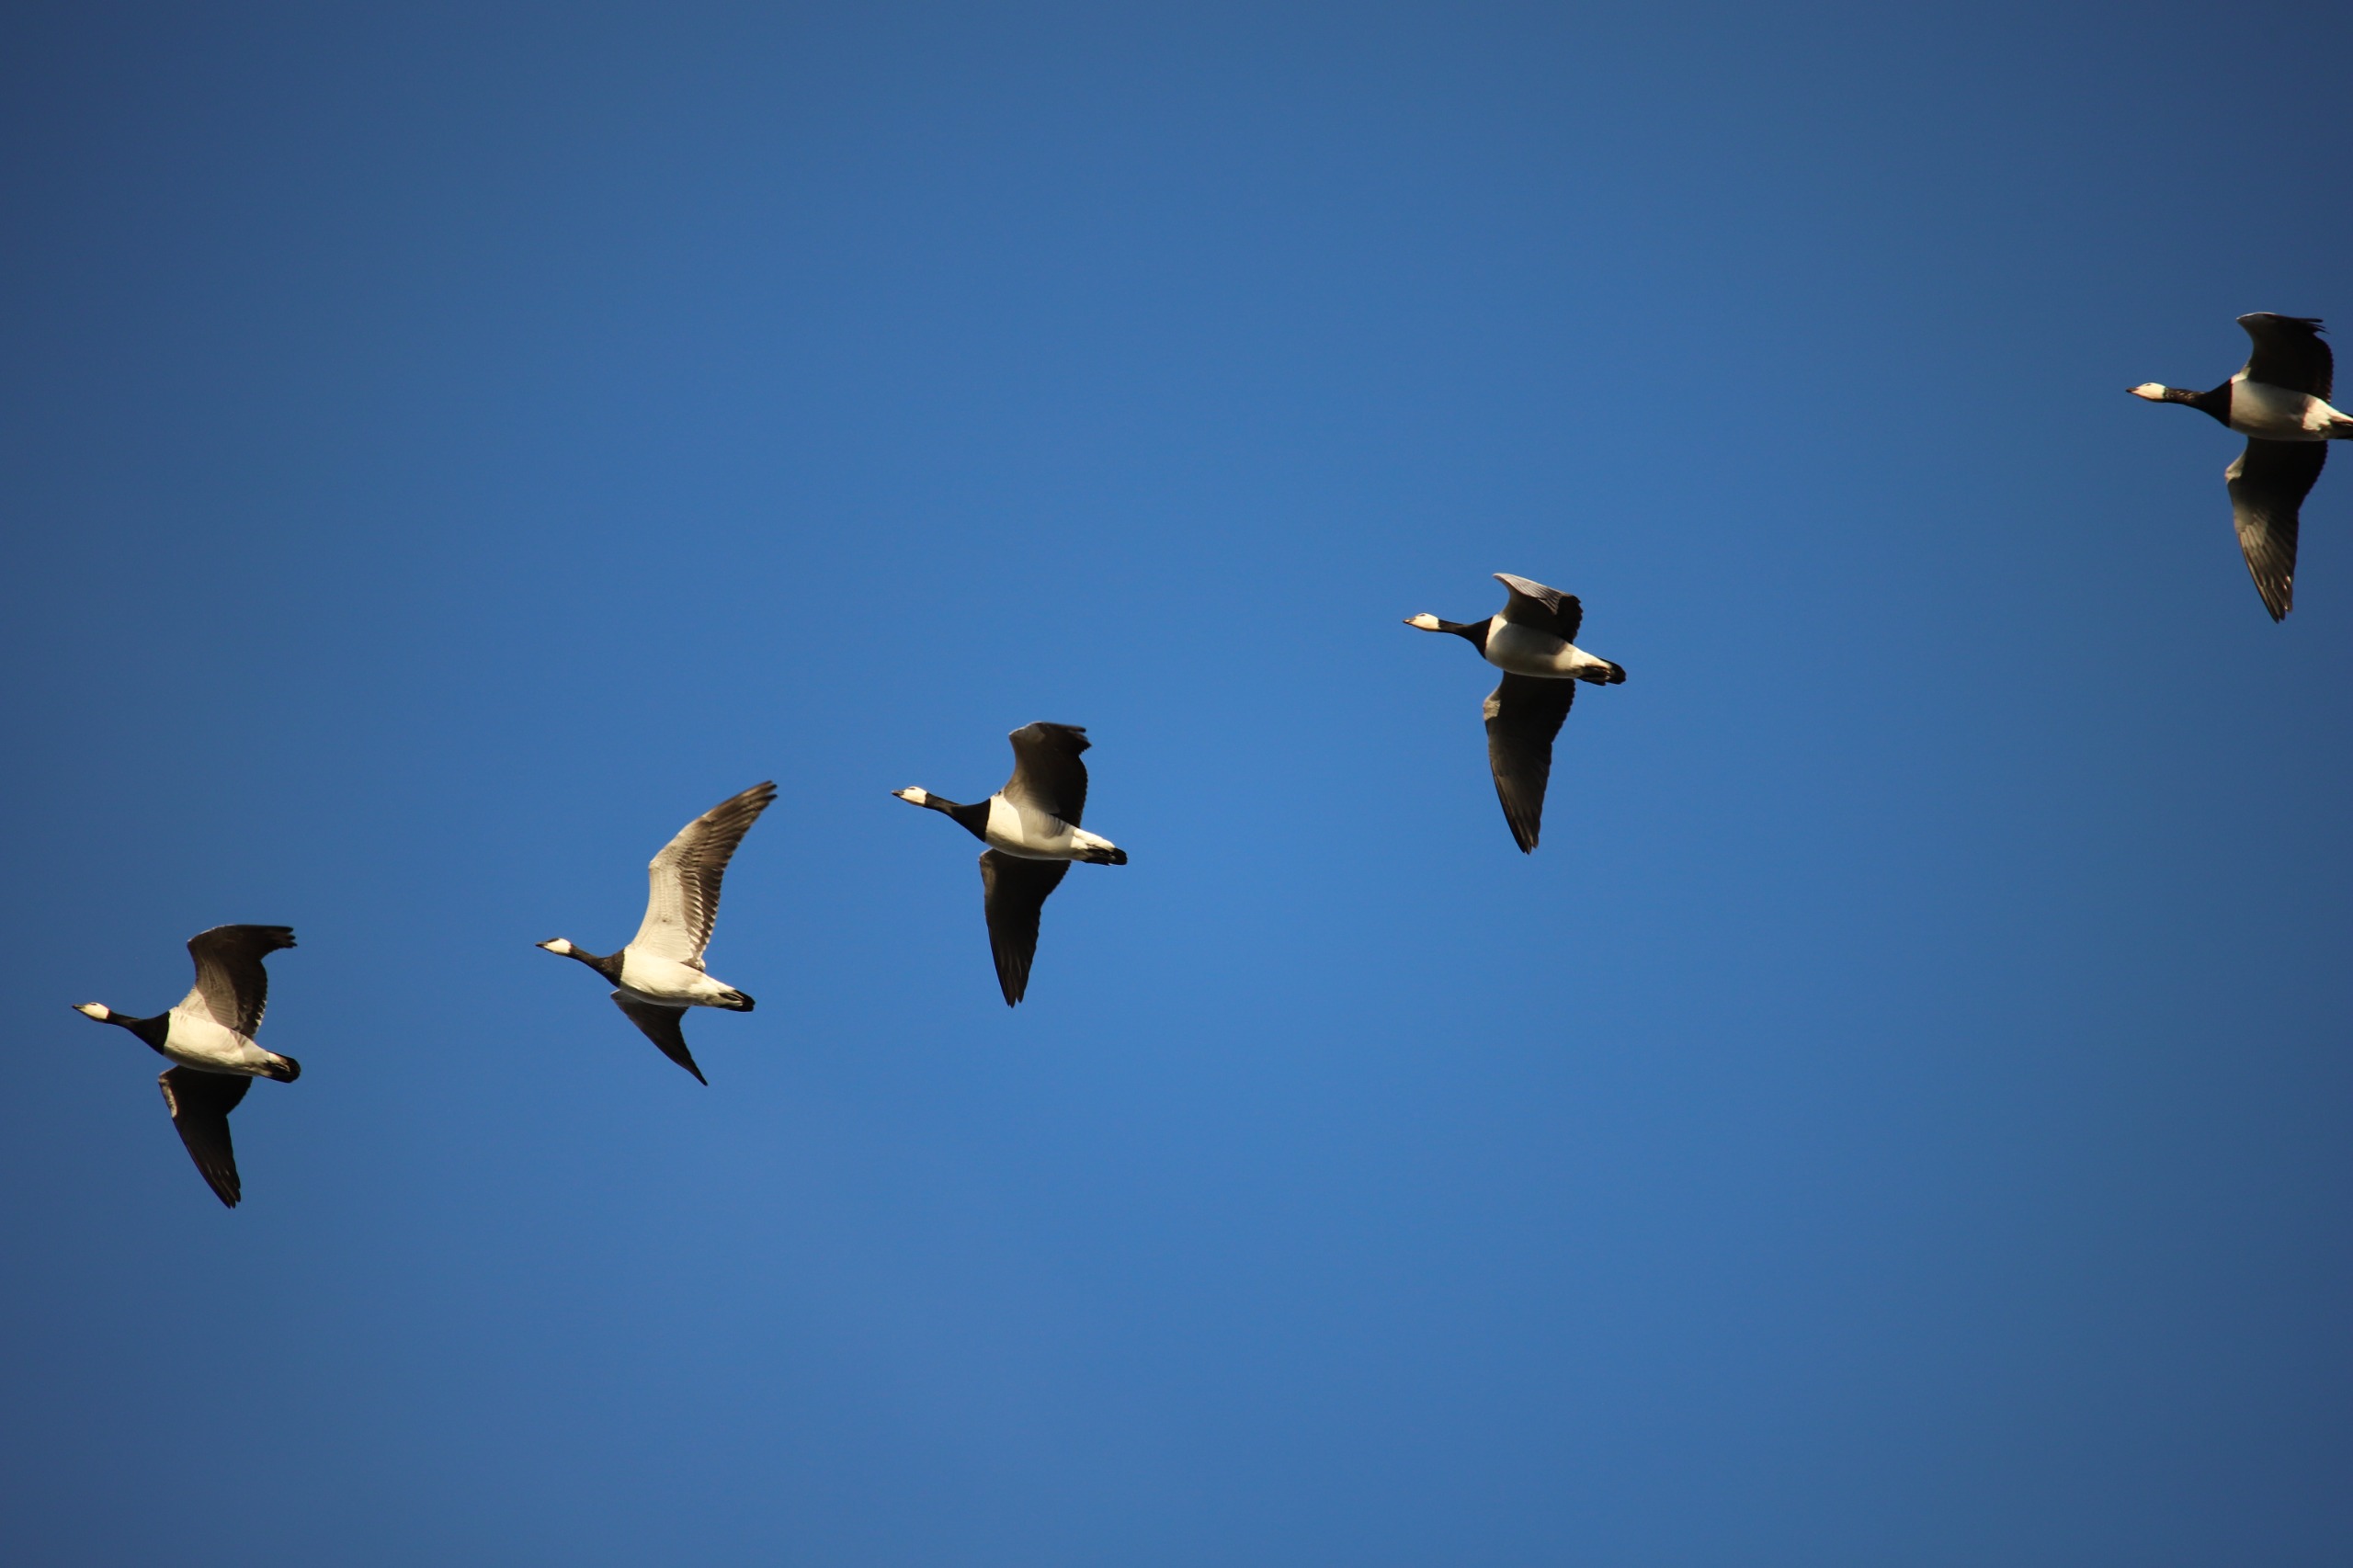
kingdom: Animalia
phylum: Chordata
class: Aves
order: Anseriformes
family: Anatidae
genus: Branta
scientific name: Branta leucopsis
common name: Bramgås
